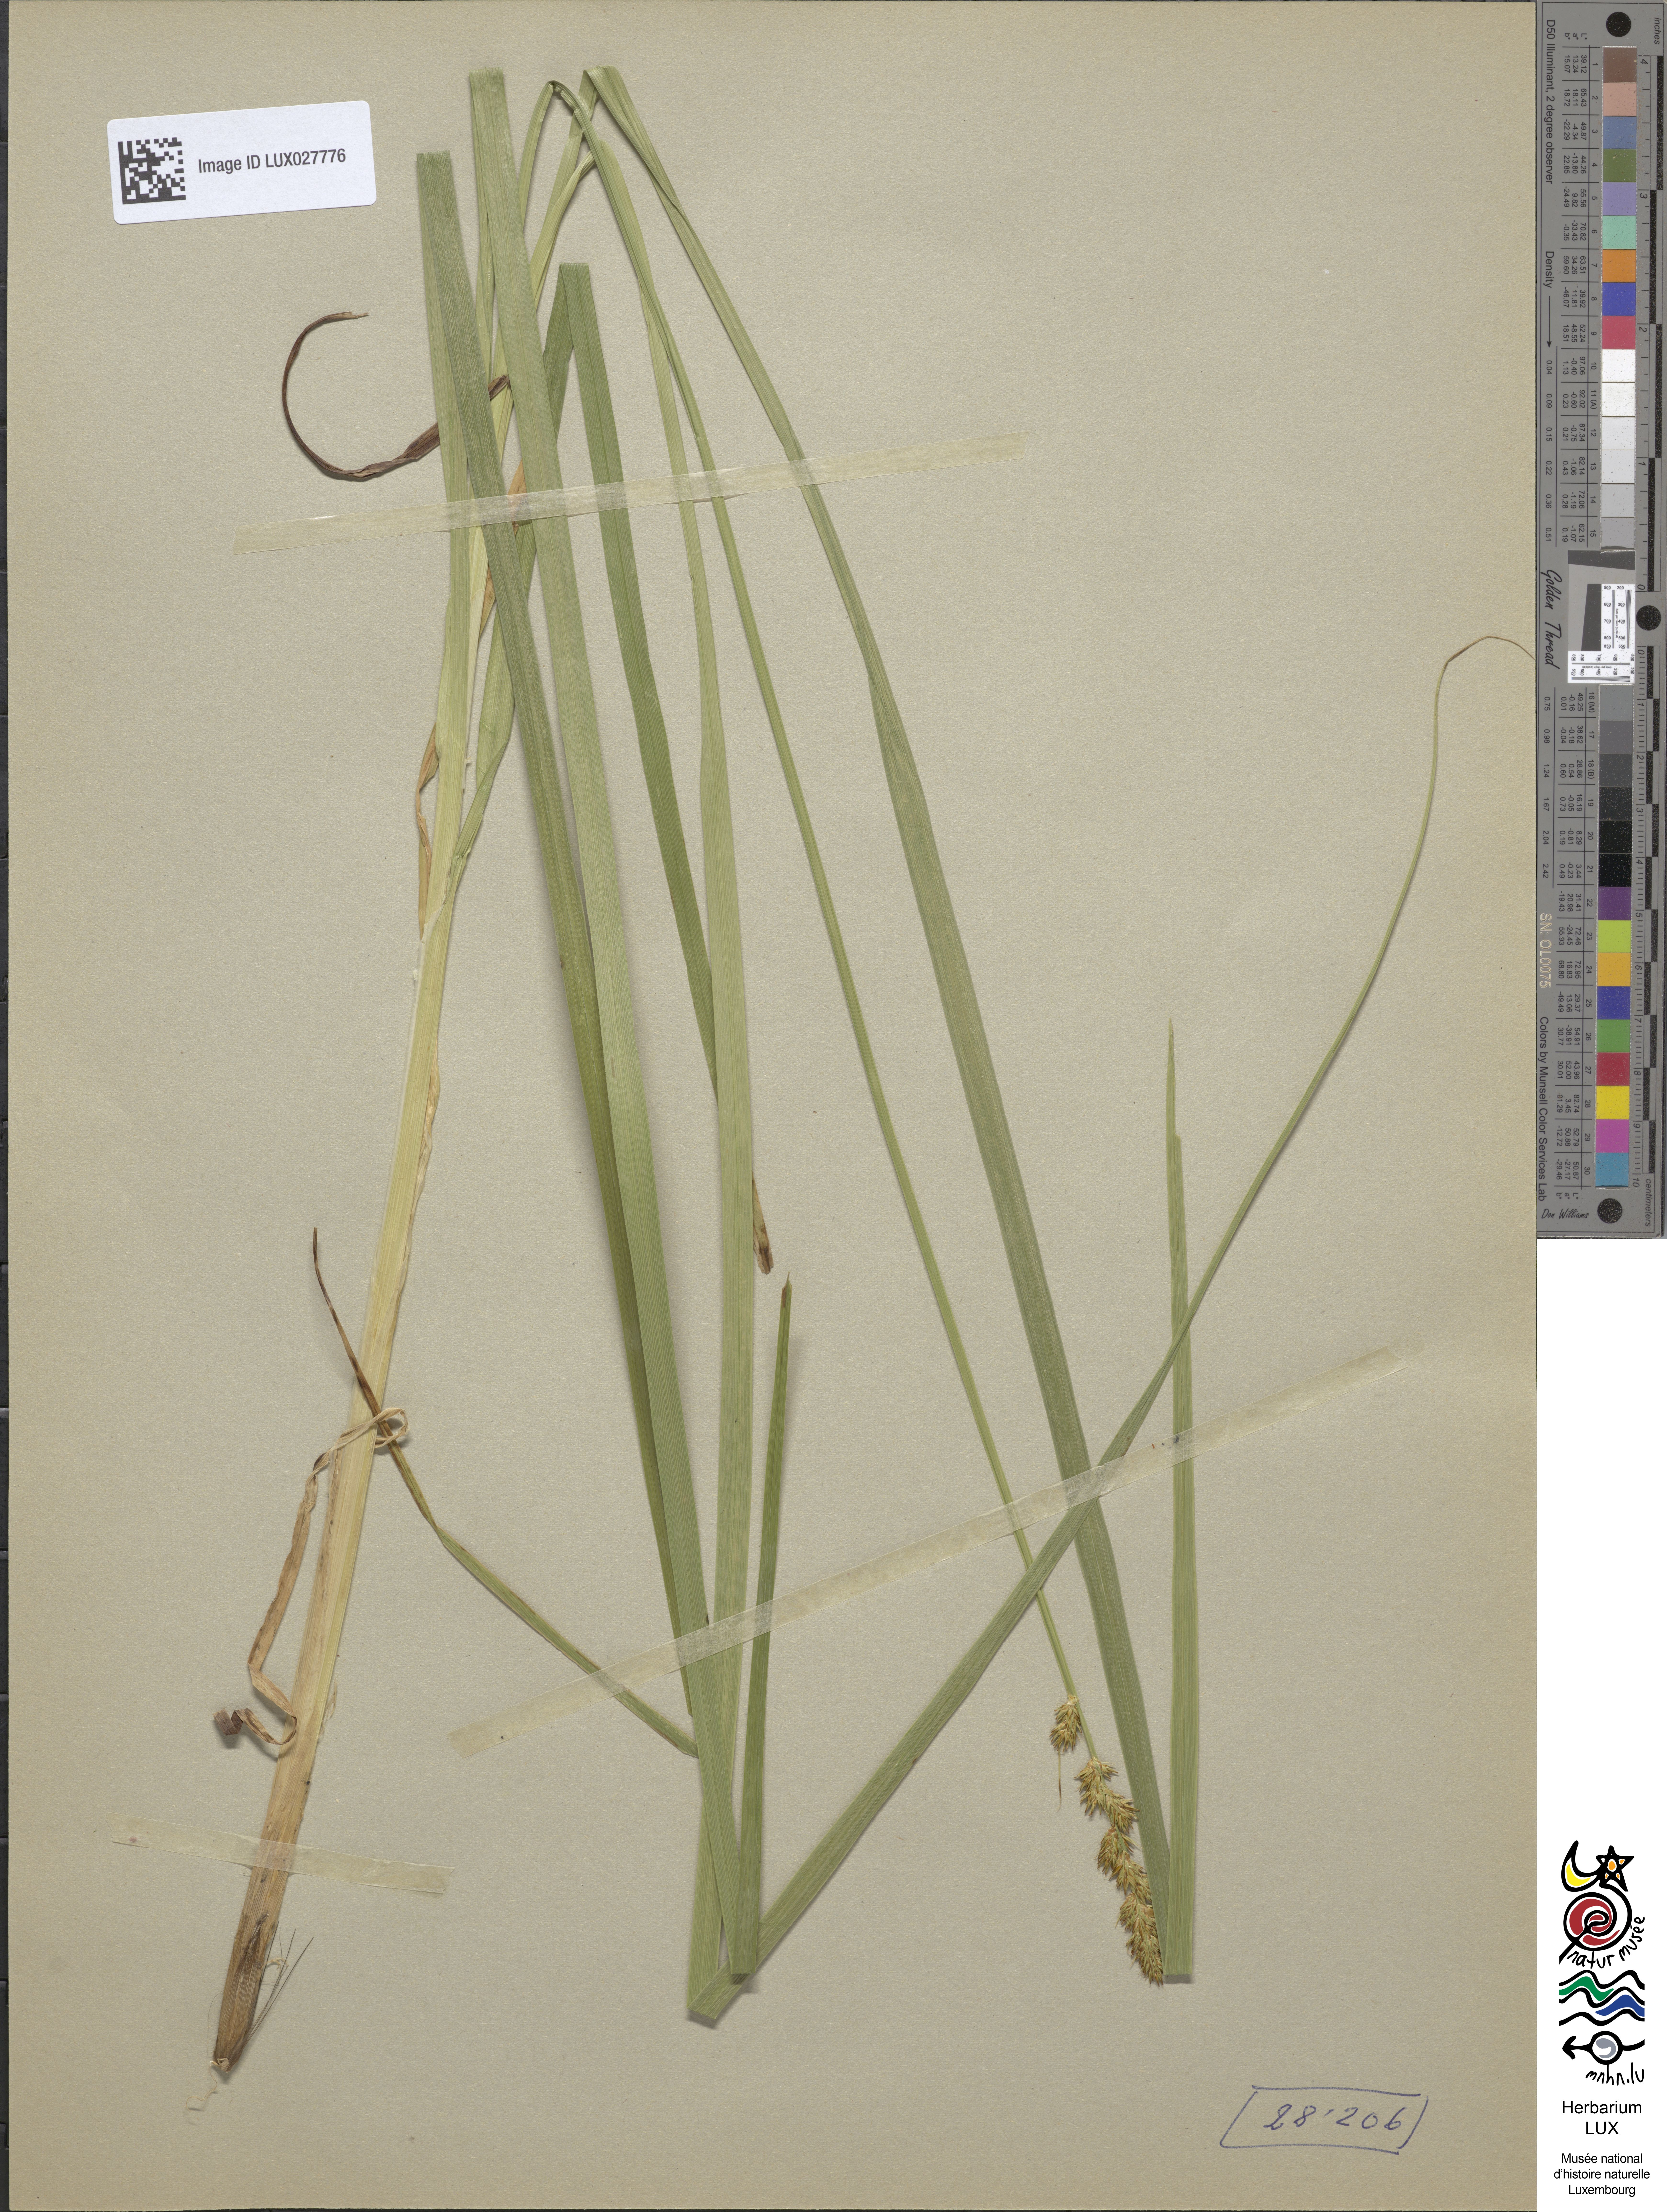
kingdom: Plantae
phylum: Tracheophyta
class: Liliopsida
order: Poales
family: Cyperaceae
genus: Carex
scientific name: Carex vulpina
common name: True fox-sedge
